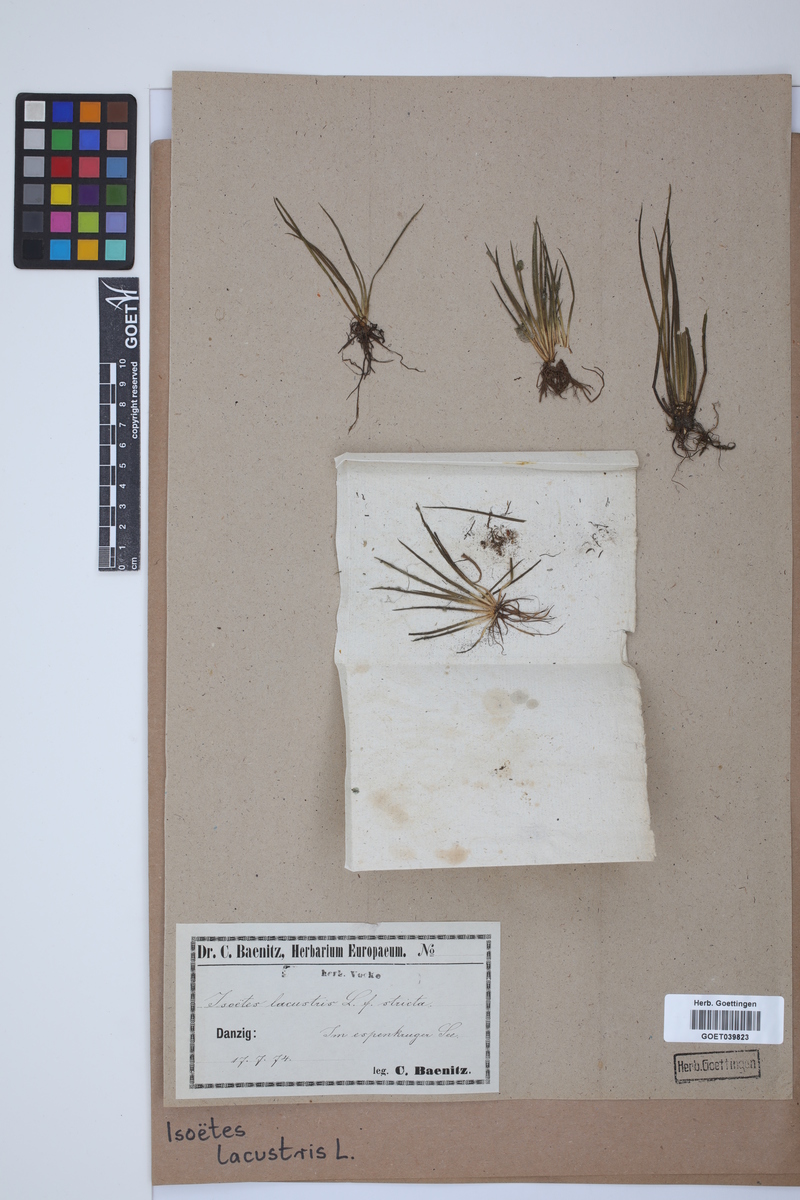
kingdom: Plantae
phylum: Tracheophyta
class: Lycopodiopsida
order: Isoetales
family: Isoetaceae
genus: Isoetes
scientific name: Isoetes lacustris
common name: Common quillwort
